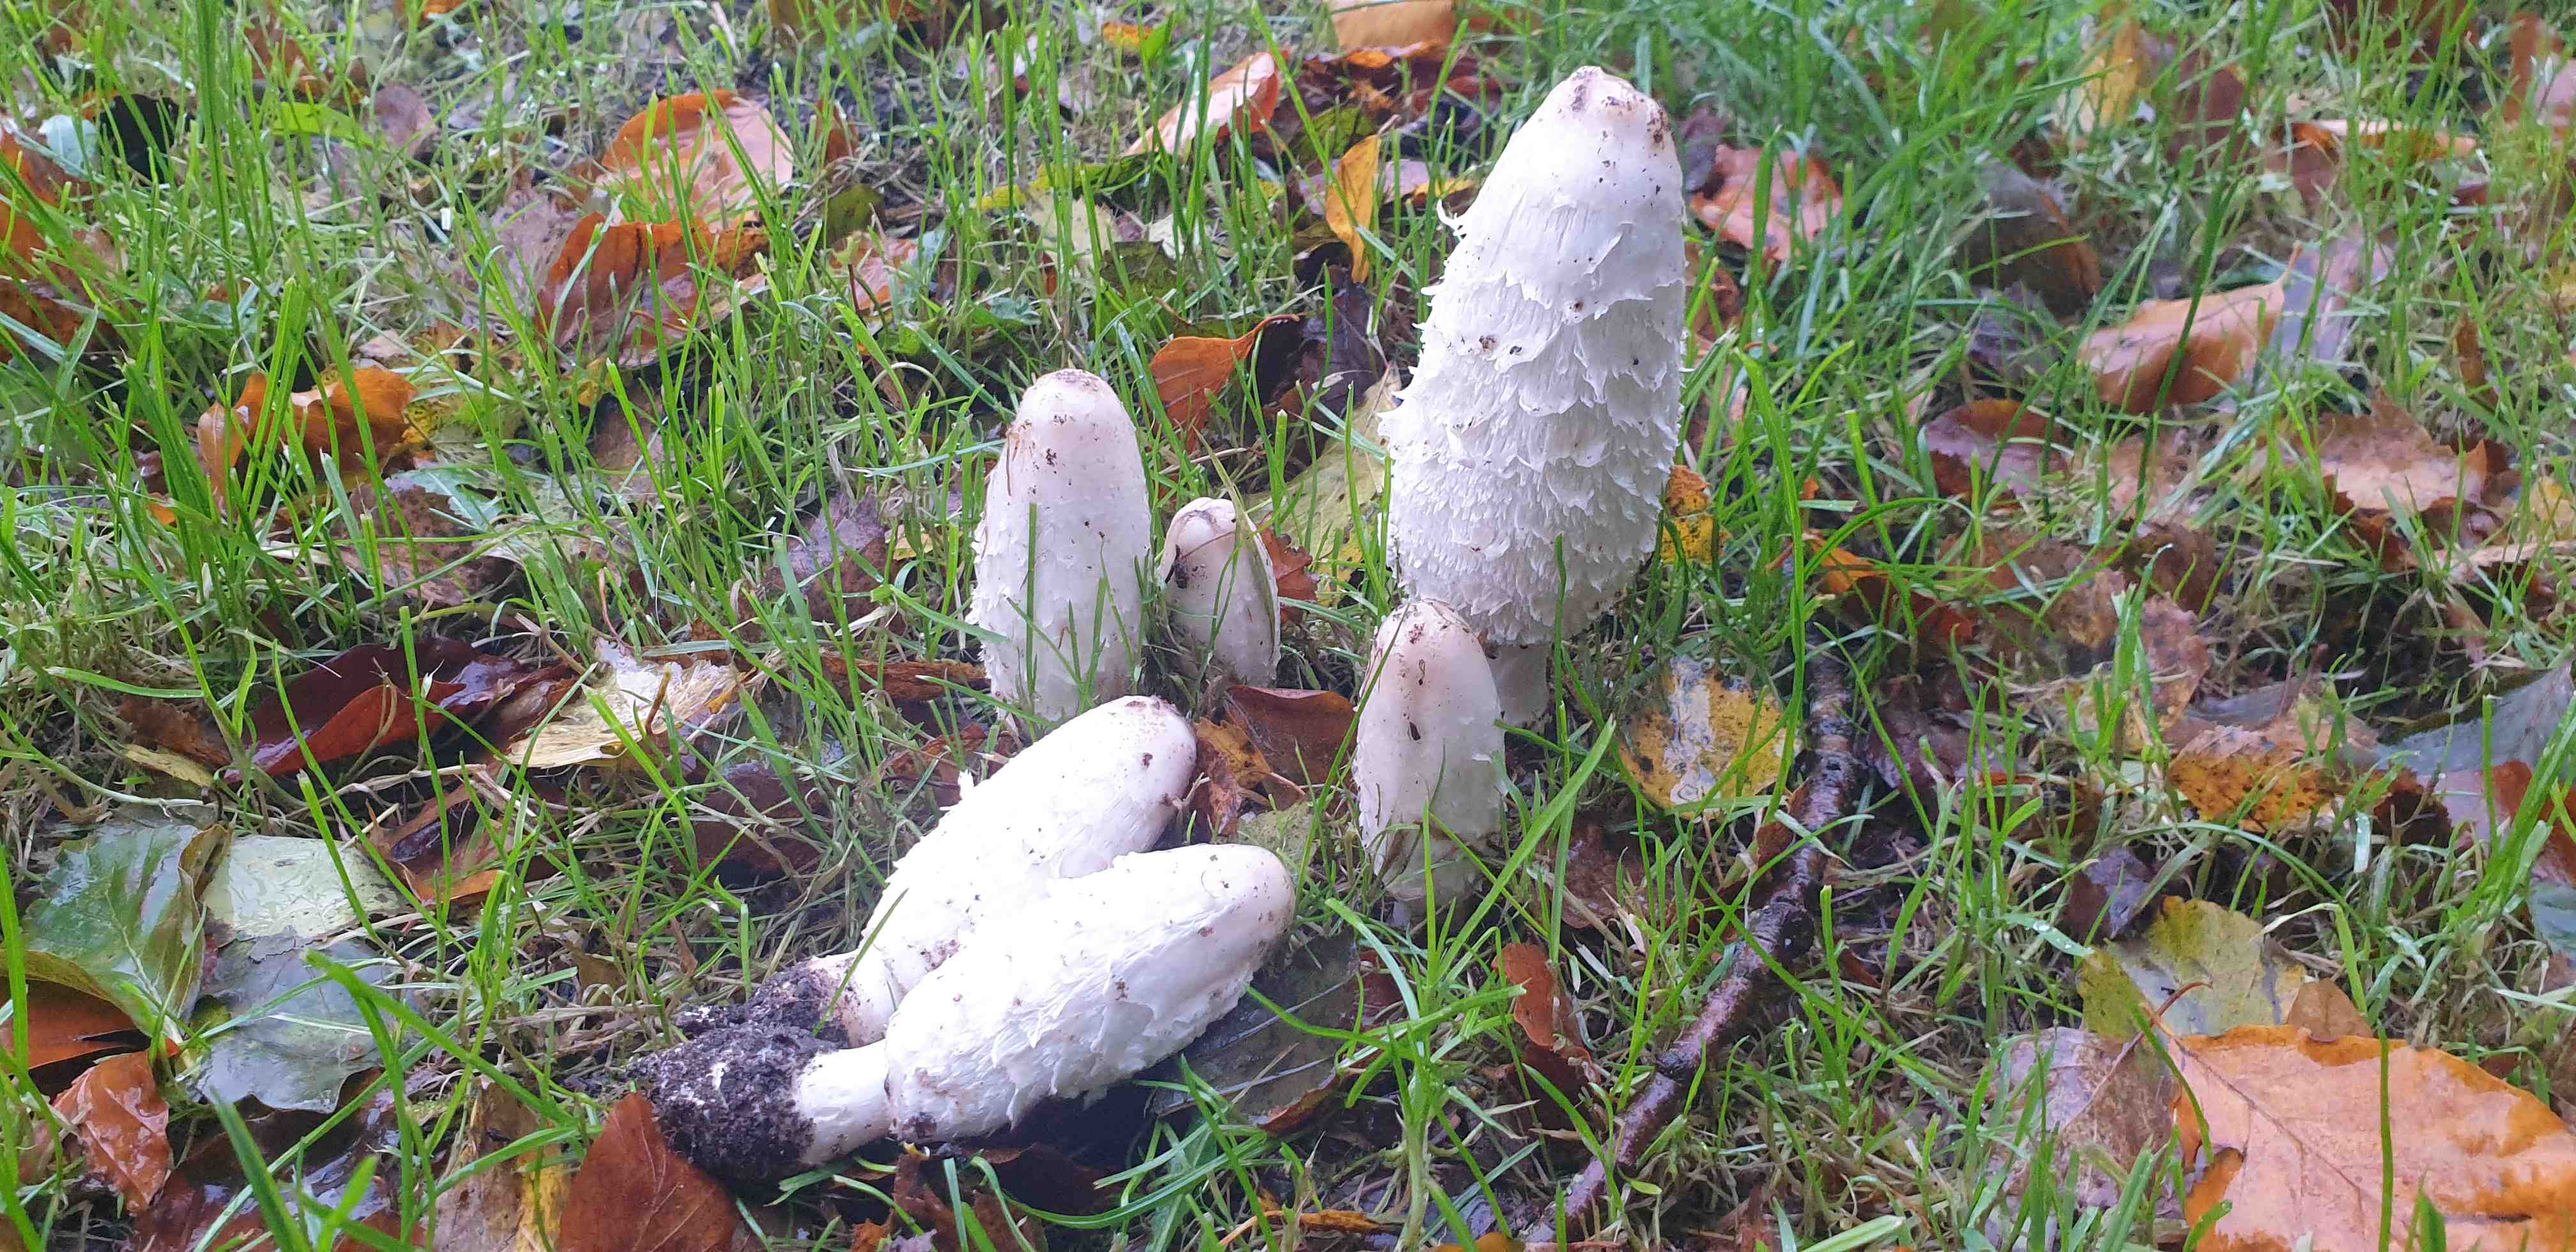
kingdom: Fungi
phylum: Basidiomycota
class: Agaricomycetes
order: Agaricales
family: Agaricaceae
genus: Coprinus
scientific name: Coprinus comatus
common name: stor parykhat
